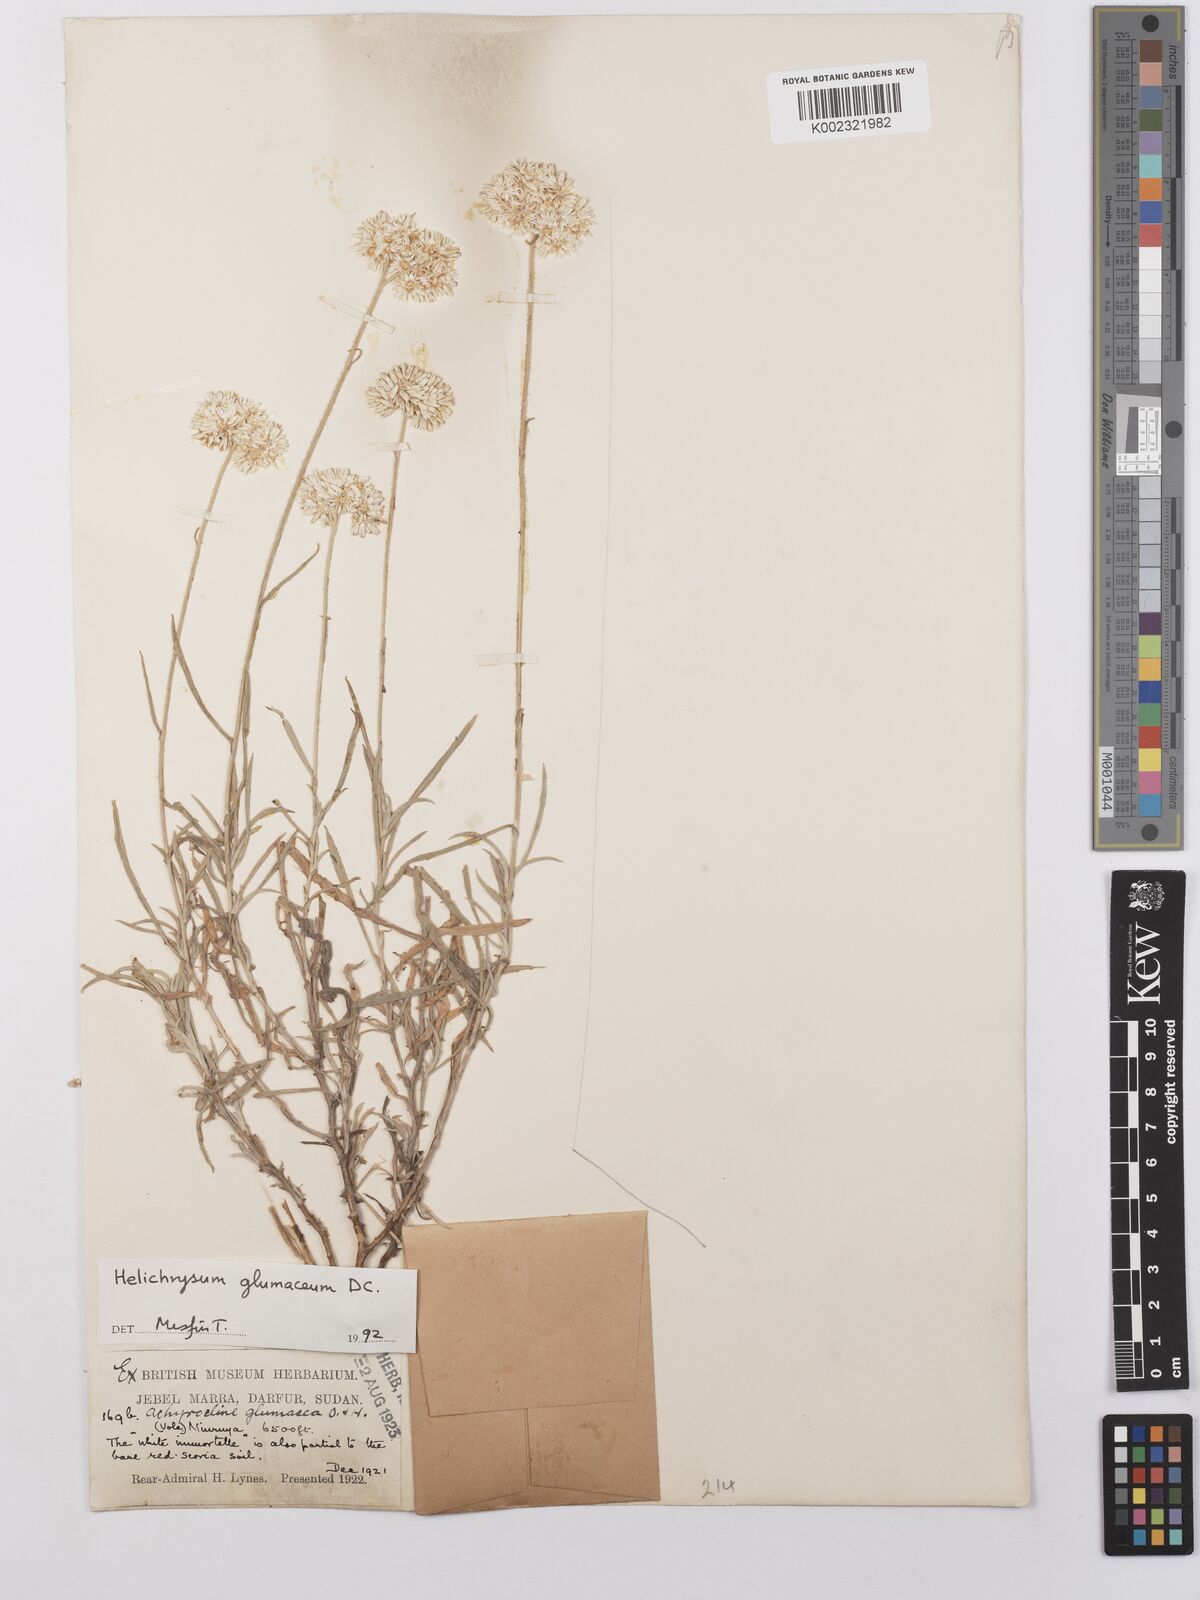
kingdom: Plantae
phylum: Tracheophyta
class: Magnoliopsida
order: Asterales
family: Asteraceae
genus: Helichrysum
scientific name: Helichrysum glumaceum
